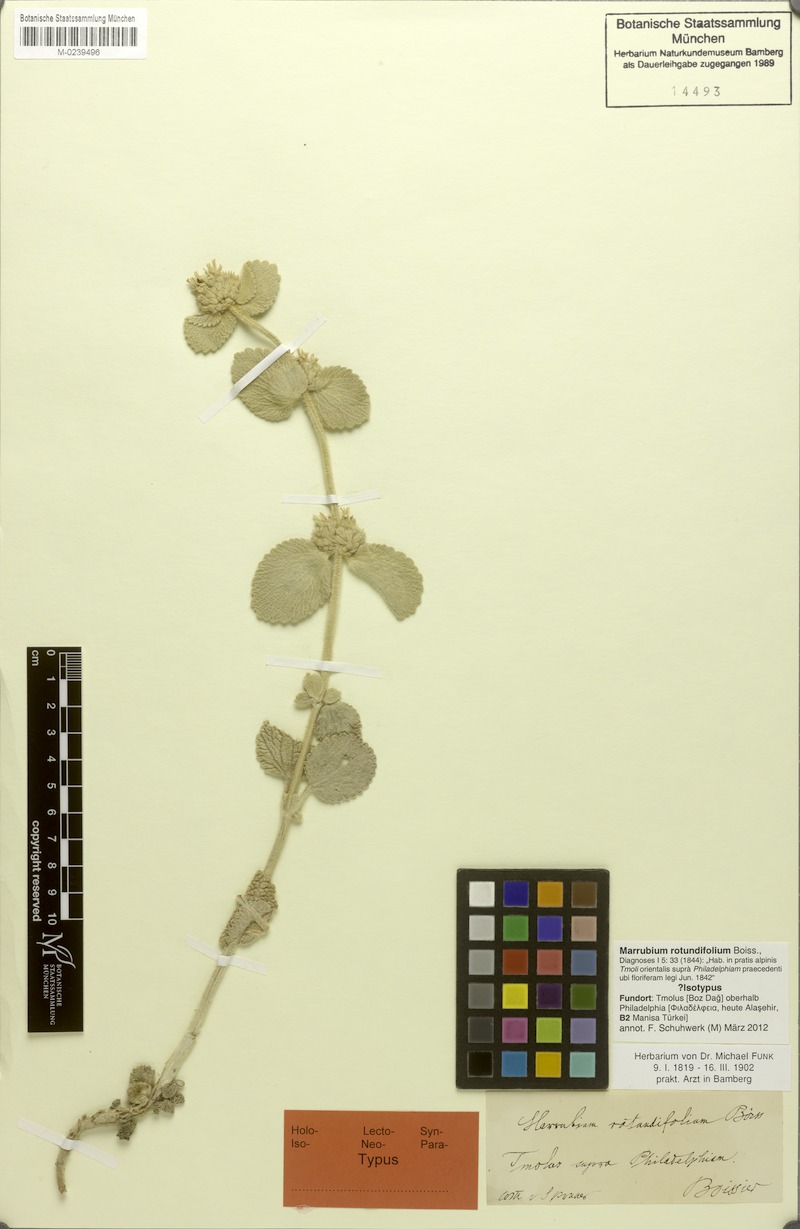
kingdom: Plantae
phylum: Tracheophyta
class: Magnoliopsida
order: Lamiales
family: Lamiaceae
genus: Marrubium
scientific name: Marrubium rotundifolium
